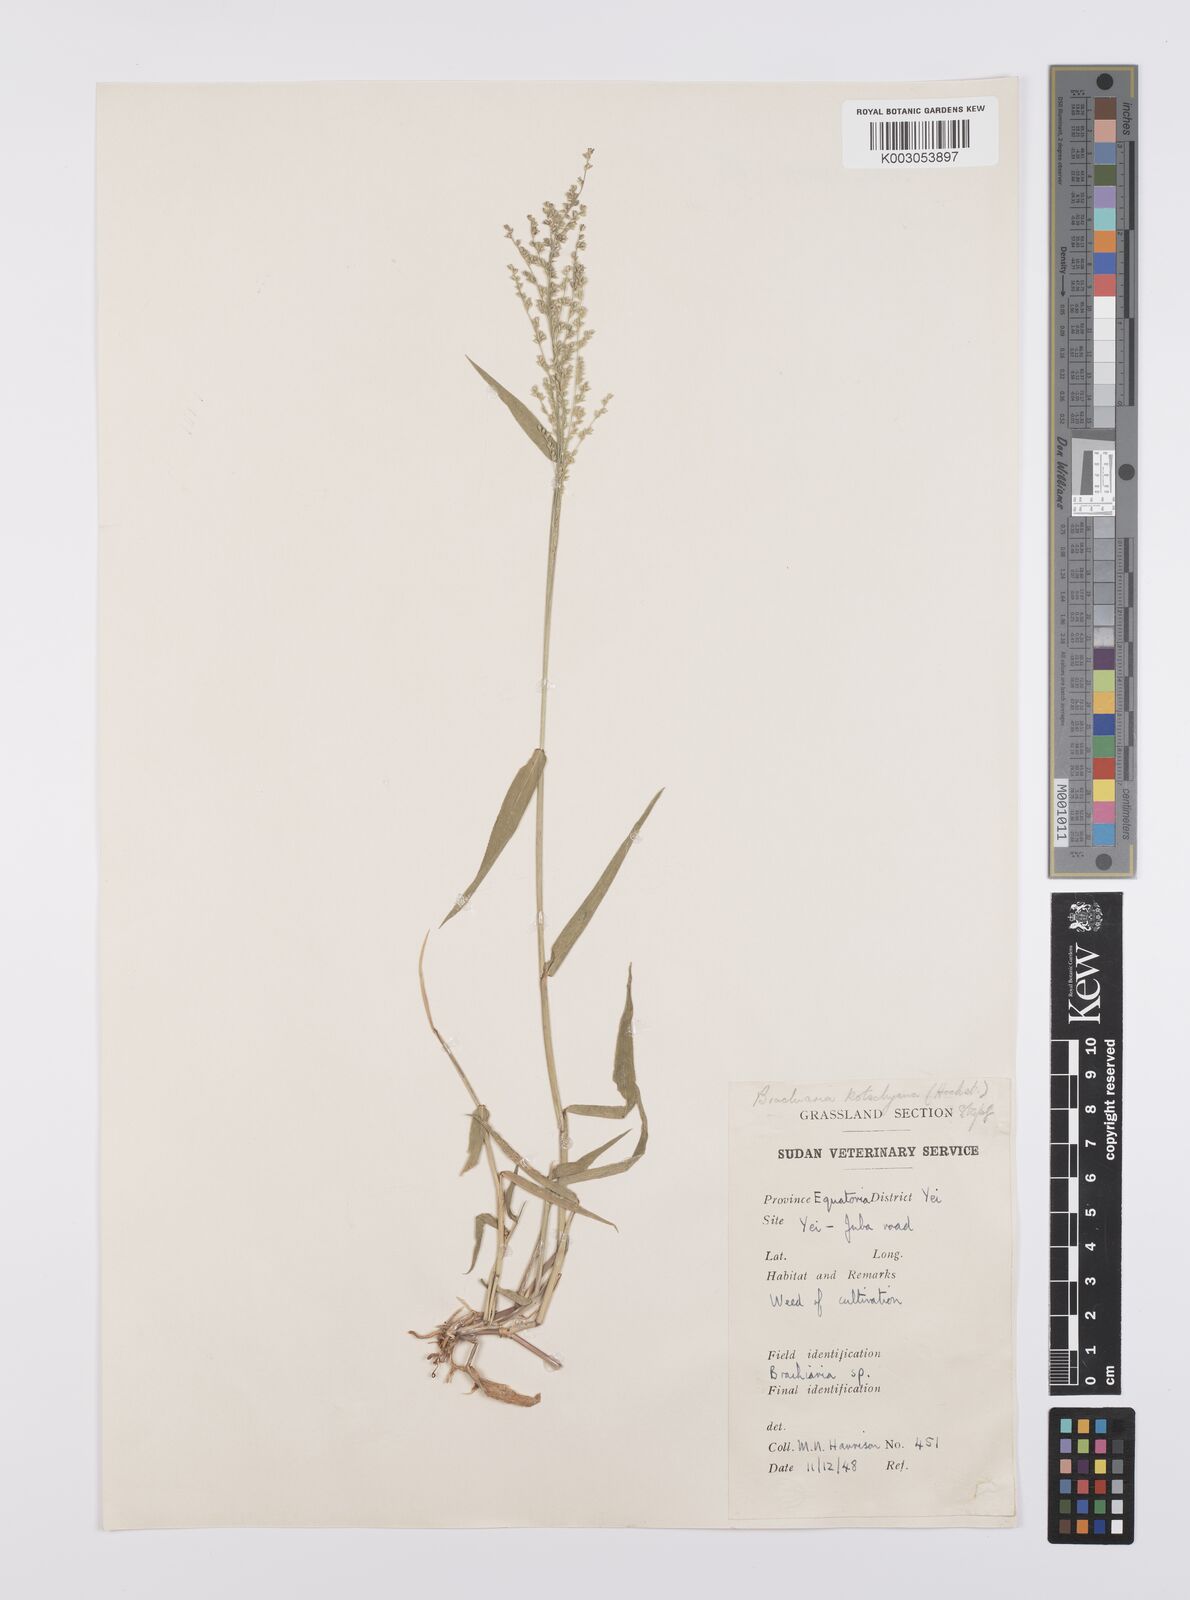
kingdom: Plantae
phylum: Tracheophyta
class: Liliopsida
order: Poales
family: Poaceae
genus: Urochloa
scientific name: Urochloa comata
